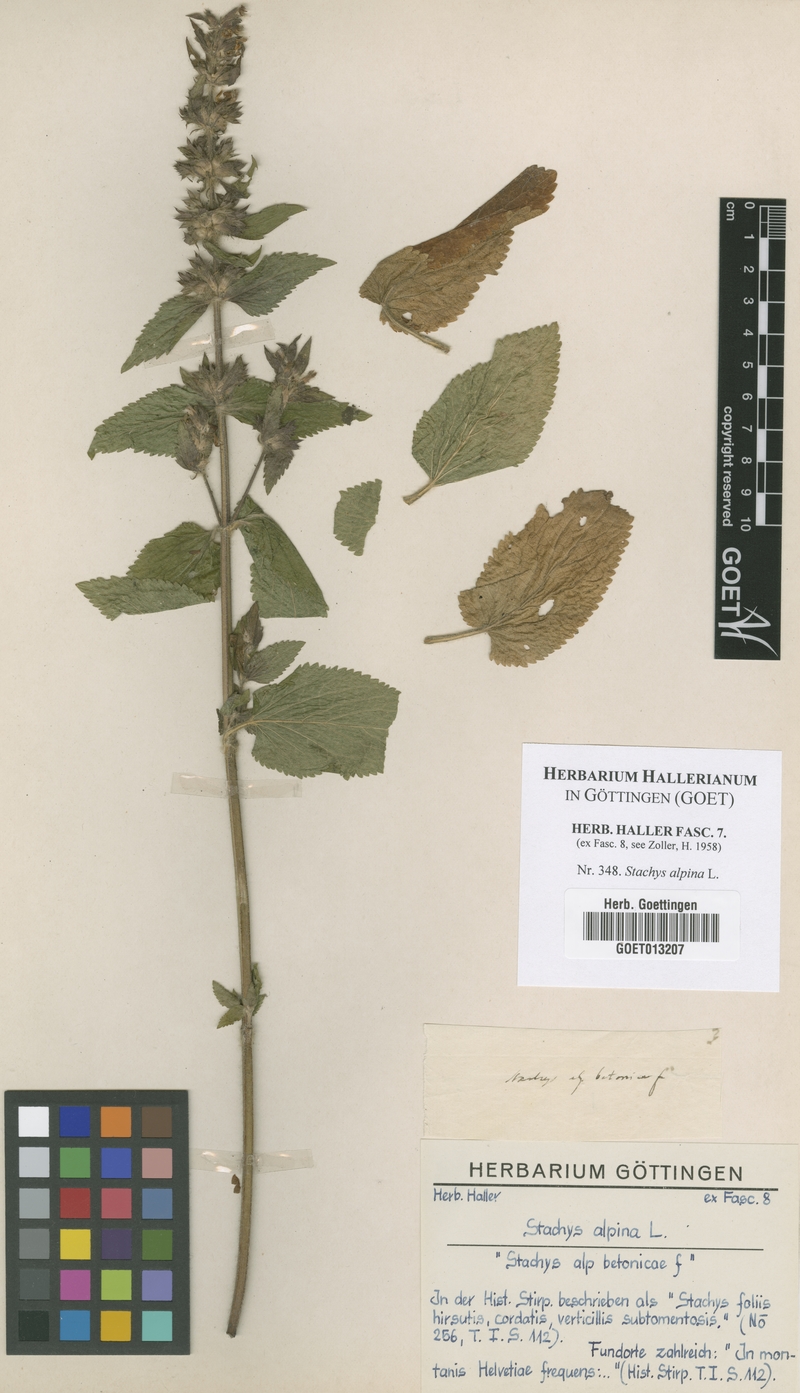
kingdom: Plantae
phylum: Tracheophyta
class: Magnoliopsida
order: Lamiales
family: Lamiaceae
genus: Stachys
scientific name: Stachys alpina
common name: Limestone woundwort
